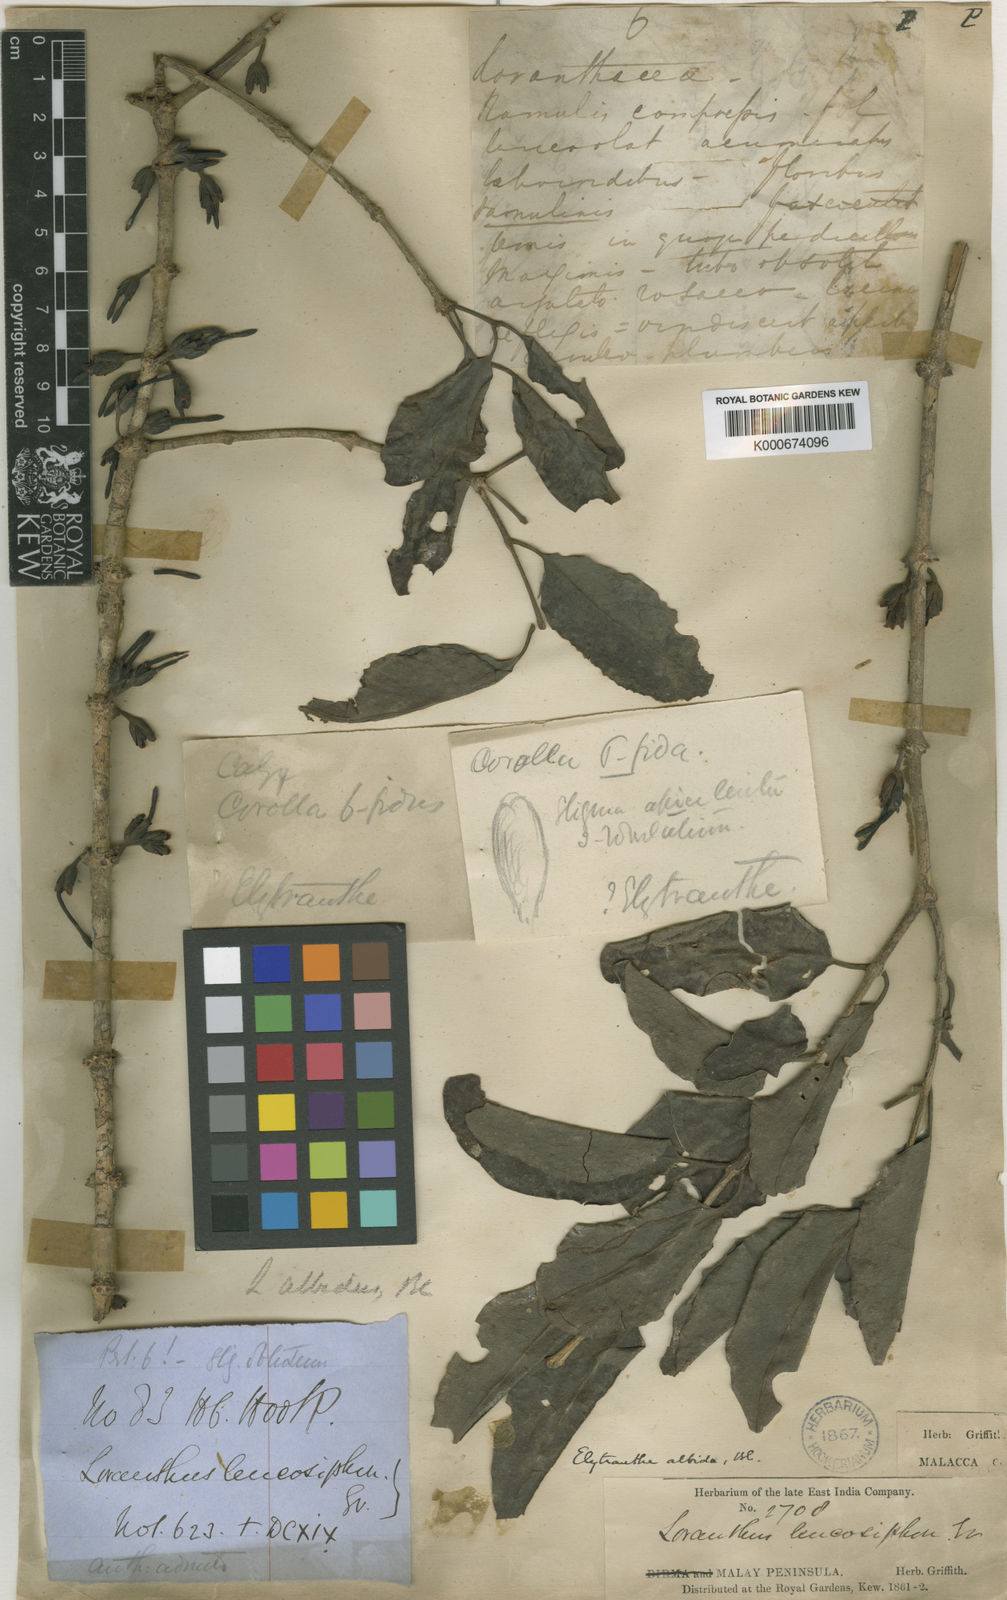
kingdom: Plantae
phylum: Tracheophyta
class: Magnoliopsida
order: Santalales
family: Loranthaceae
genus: Elytranthe
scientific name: Elytranthe albida
